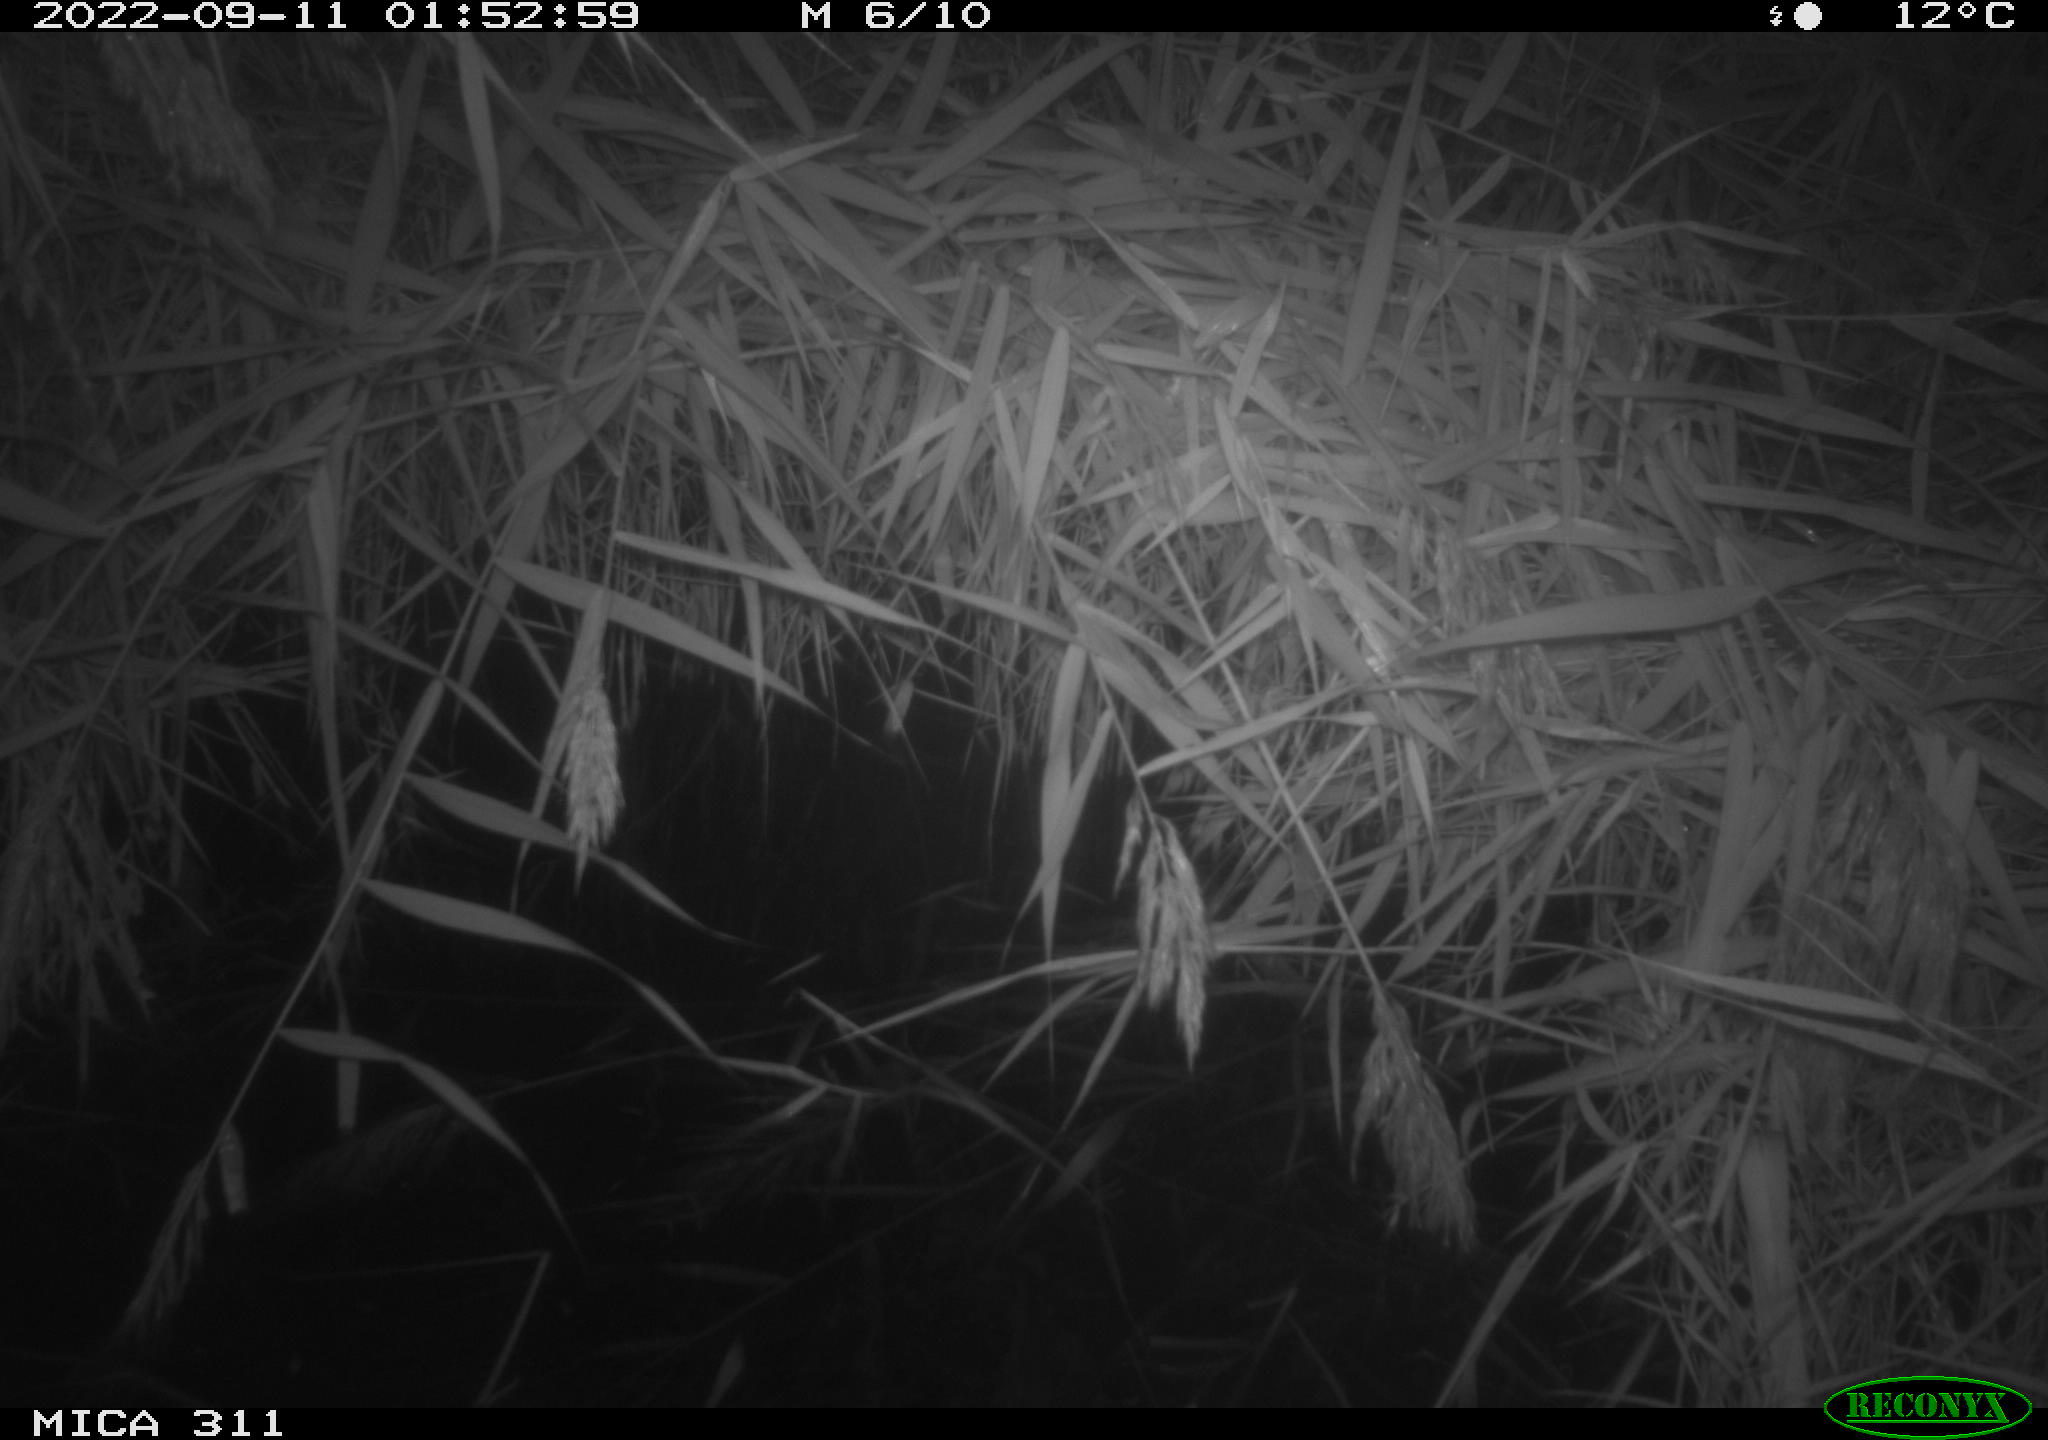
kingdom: Animalia
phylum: Chordata
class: Mammalia
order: Rodentia
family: Muridae
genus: Rattus
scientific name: Rattus norvegicus
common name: Brown rat
